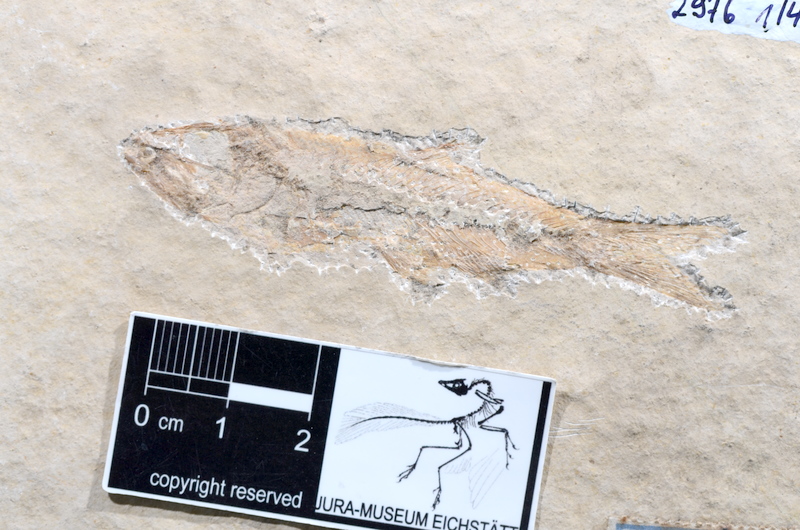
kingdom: Animalia
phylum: Chordata
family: Ascalaboidae
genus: Ascalabos
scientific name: Ascalabos voithii
